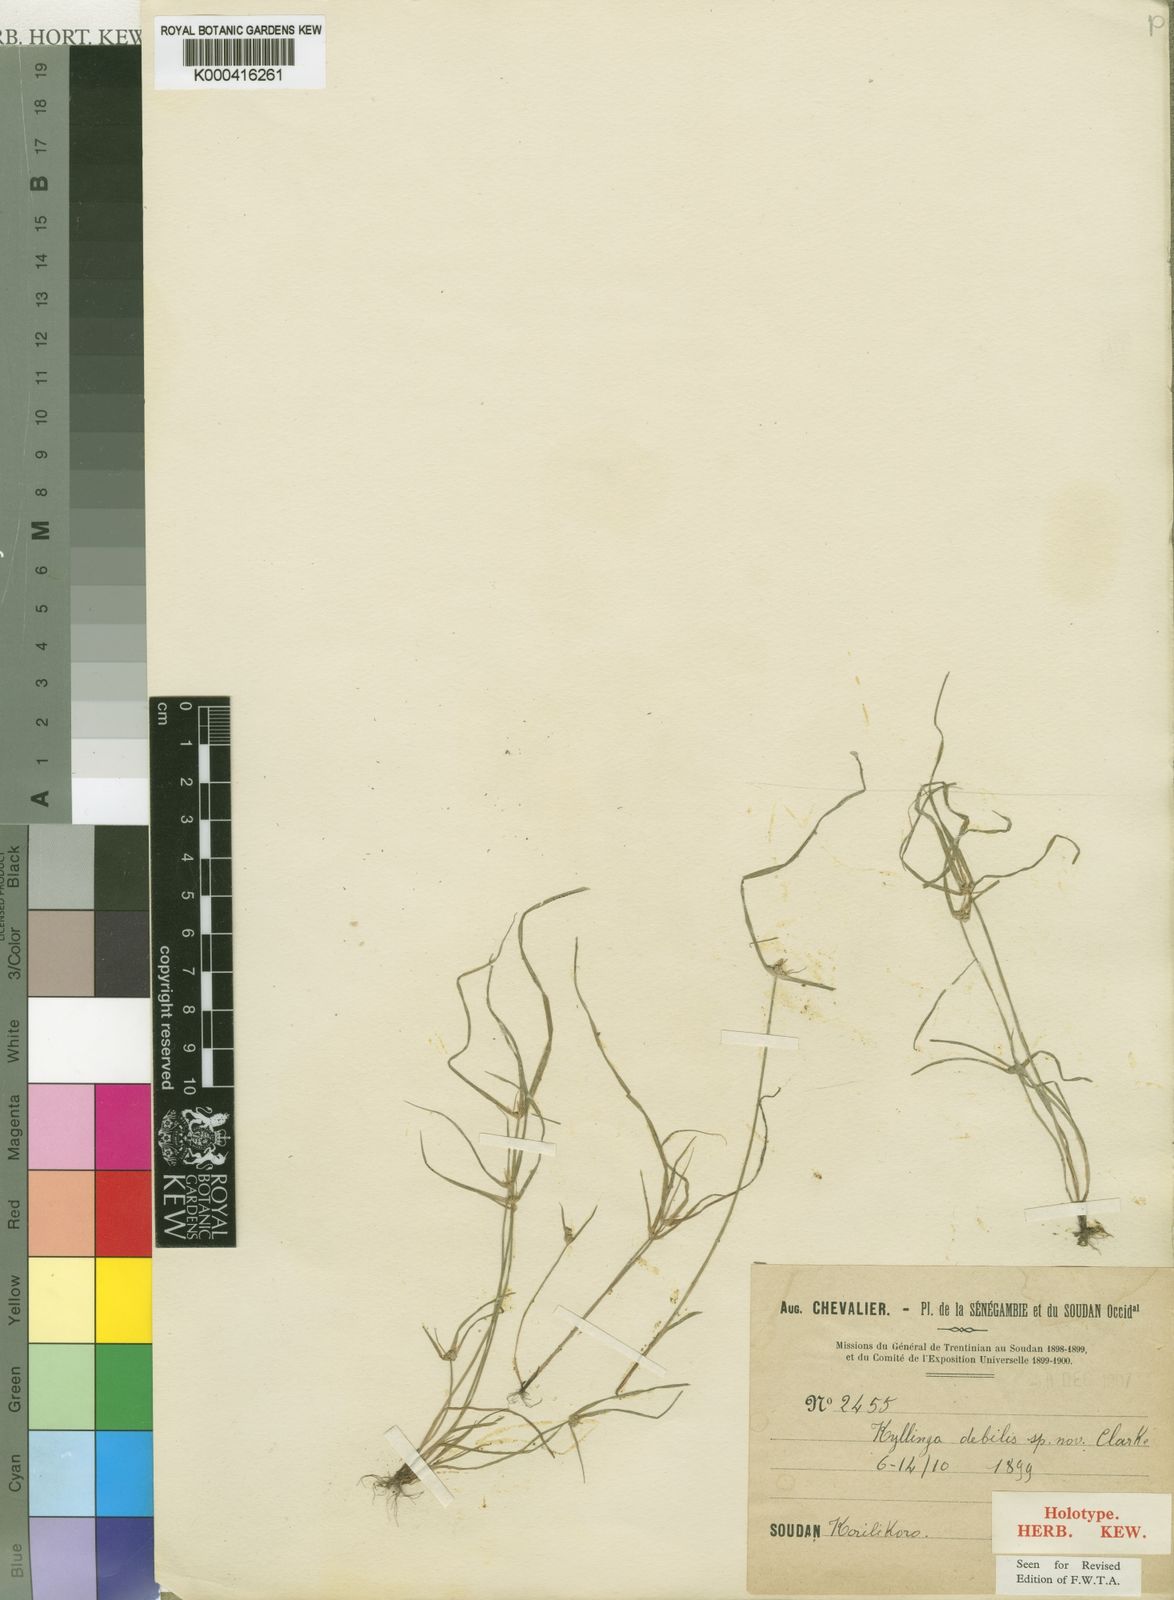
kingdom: Plantae
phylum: Tracheophyta
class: Liliopsida
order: Poales
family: Cyperaceae
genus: Cyperus
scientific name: Cyperus leptorhachis
